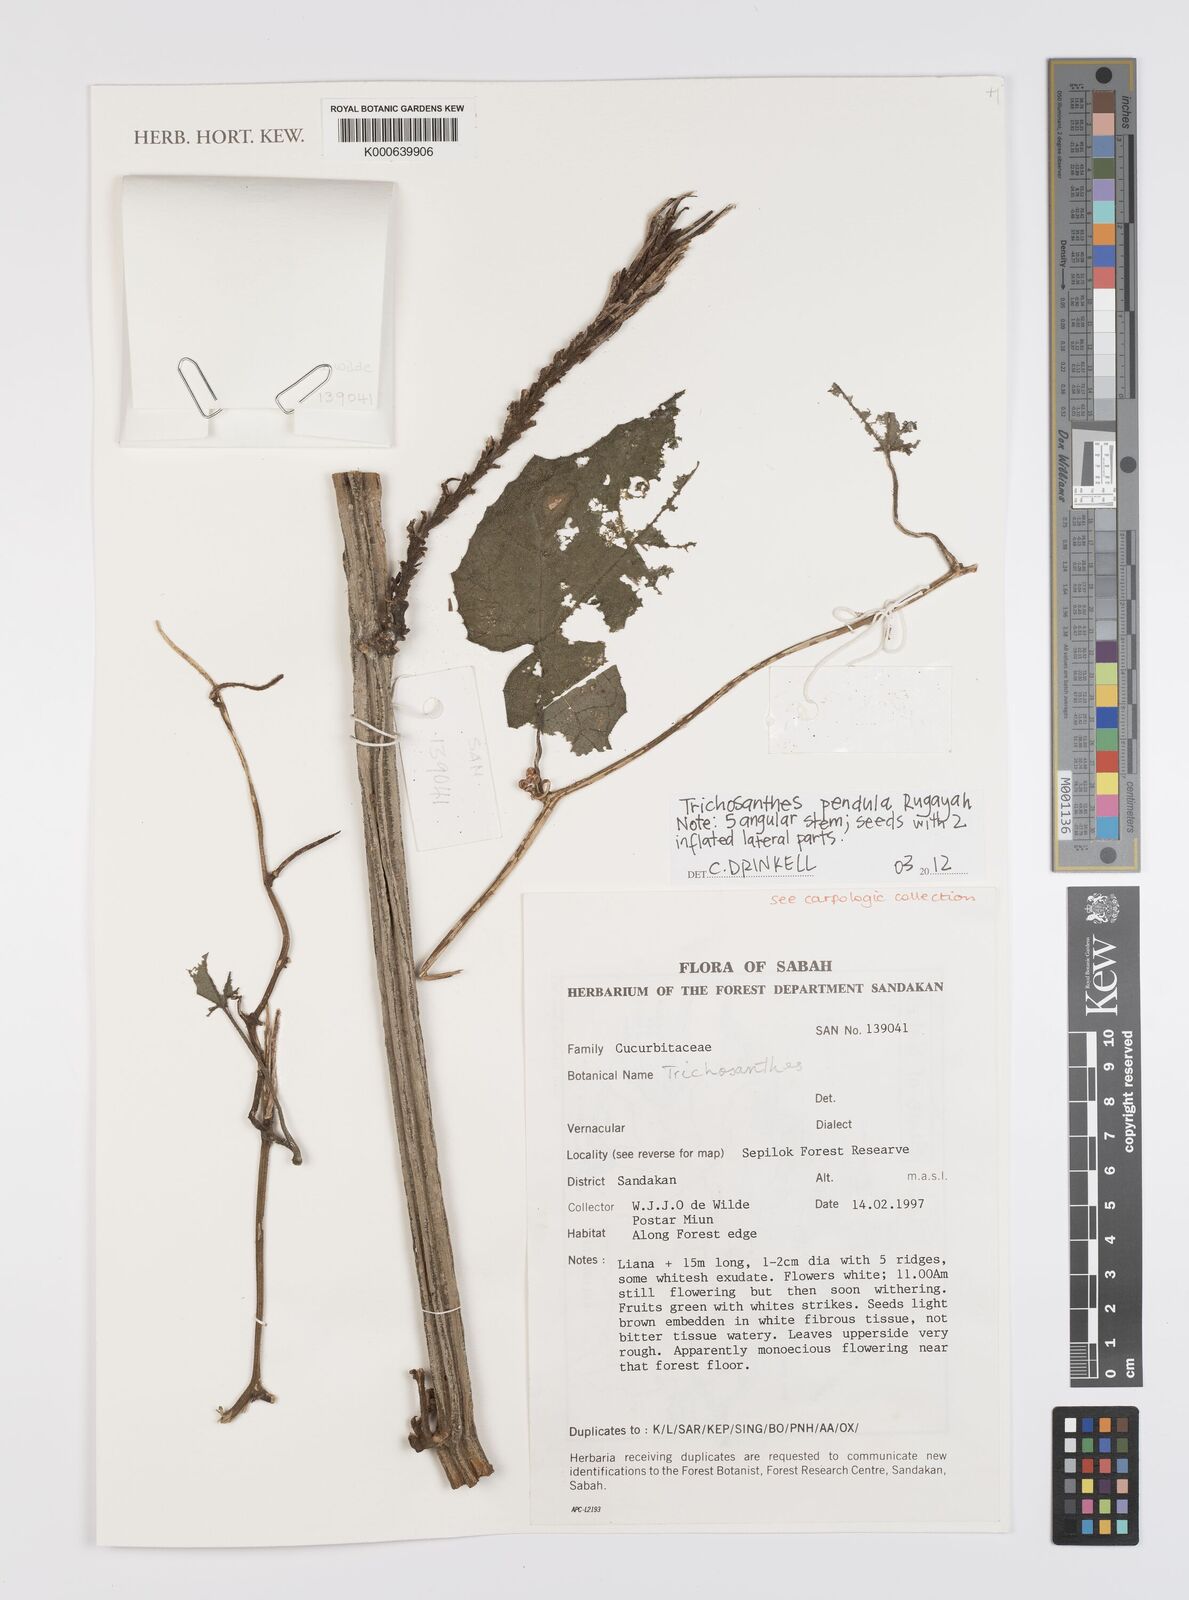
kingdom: Plantae
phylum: Tracheophyta
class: Magnoliopsida
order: Cucurbitales
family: Cucurbitaceae
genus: Trichosanthes
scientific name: Trichosanthes pendula
